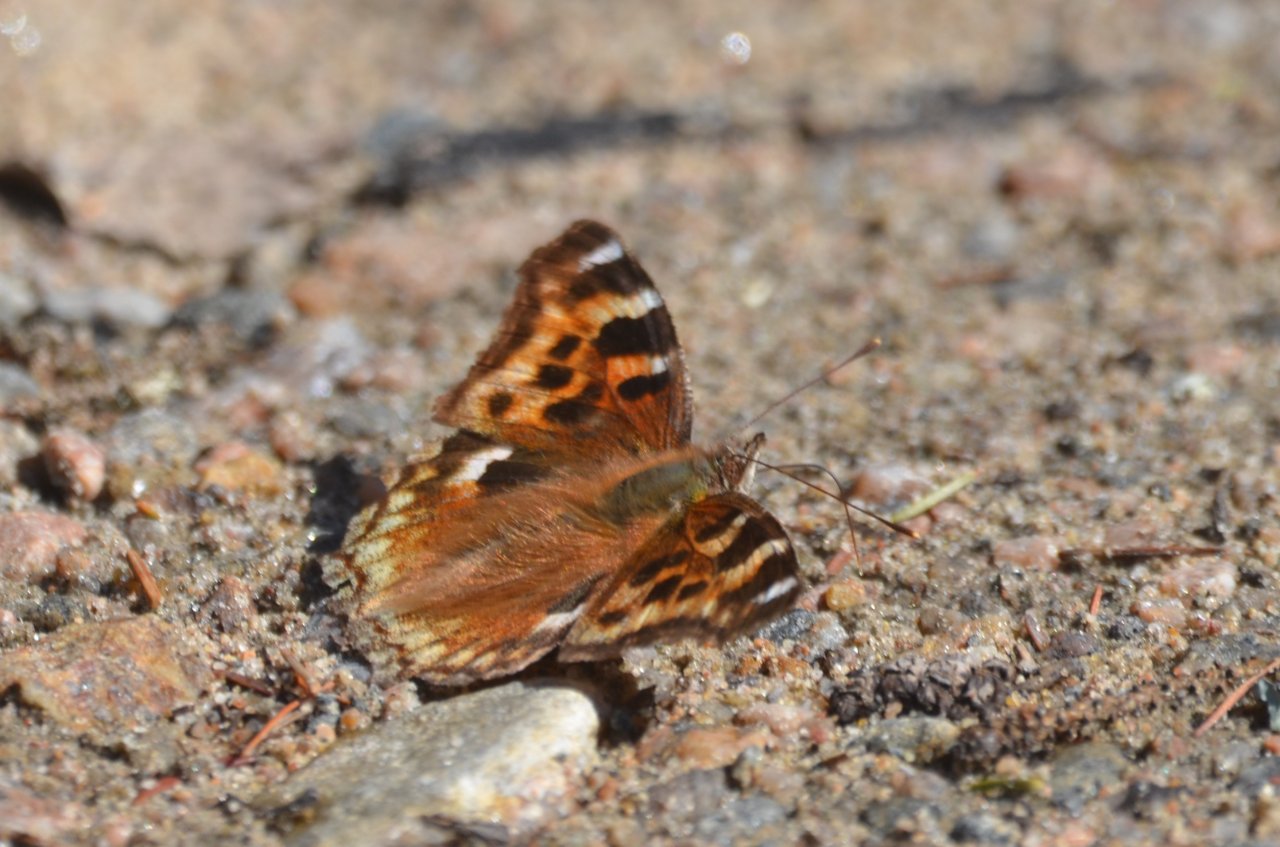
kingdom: Animalia
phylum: Arthropoda
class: Insecta
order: Lepidoptera
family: Nymphalidae
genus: Polygonia
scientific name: Polygonia vaualbum
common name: Compton Tortoiseshell
